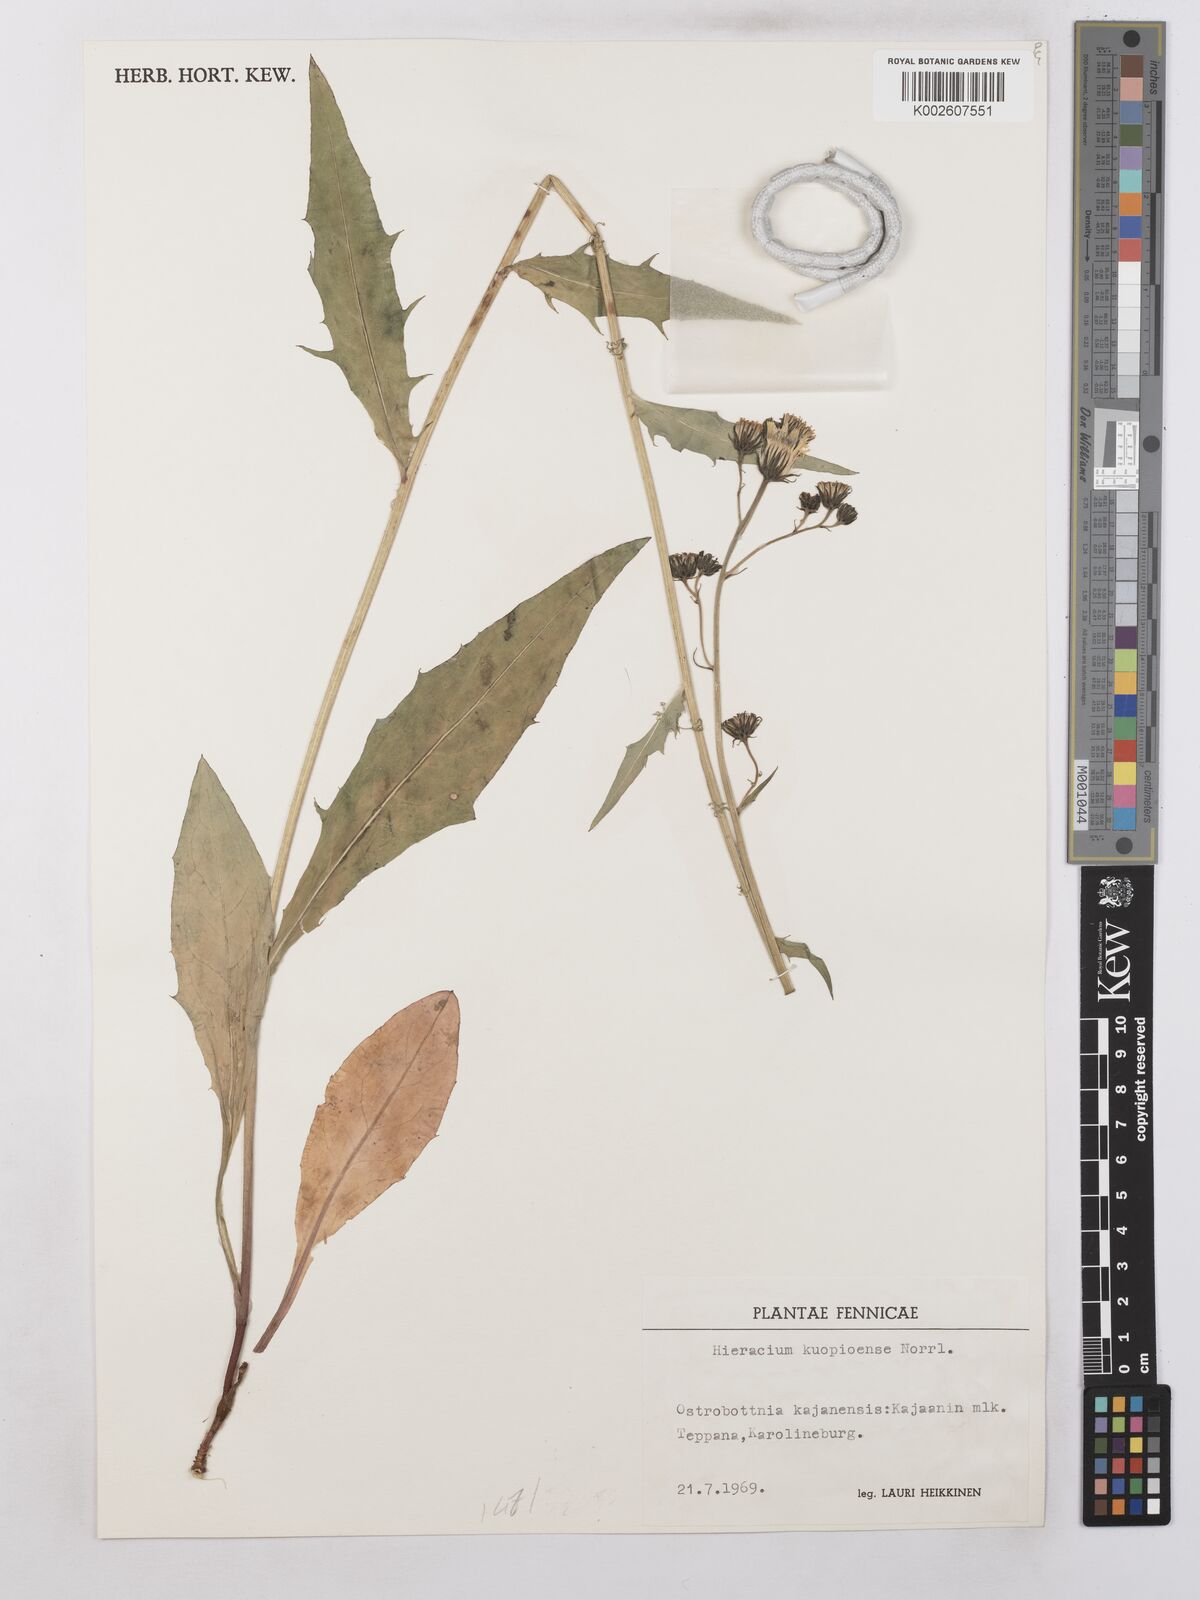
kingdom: Plantae
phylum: Tracheophyta
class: Magnoliopsida
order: Asterales
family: Asteraceae
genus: Hieracium
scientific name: Hieracium
